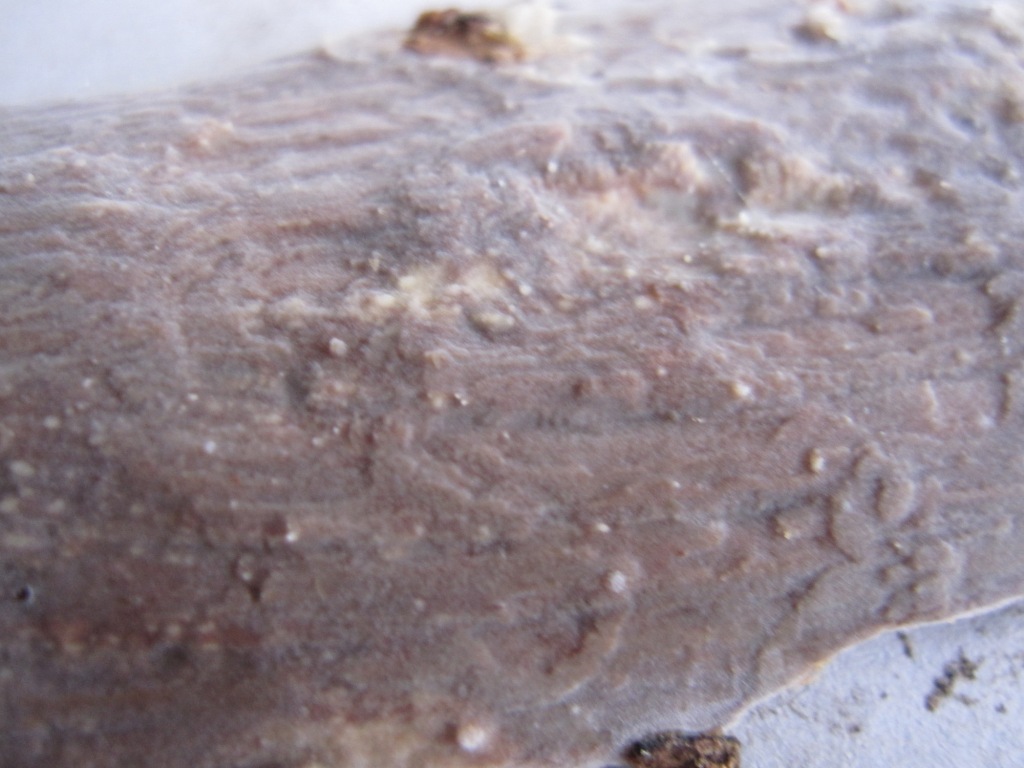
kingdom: Fungi
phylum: Basidiomycota
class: Agaricomycetes
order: Corticiales
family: Vuilleminiaceae
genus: Vuilleminia
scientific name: Vuilleminia comedens
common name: almindelig barksprænger
